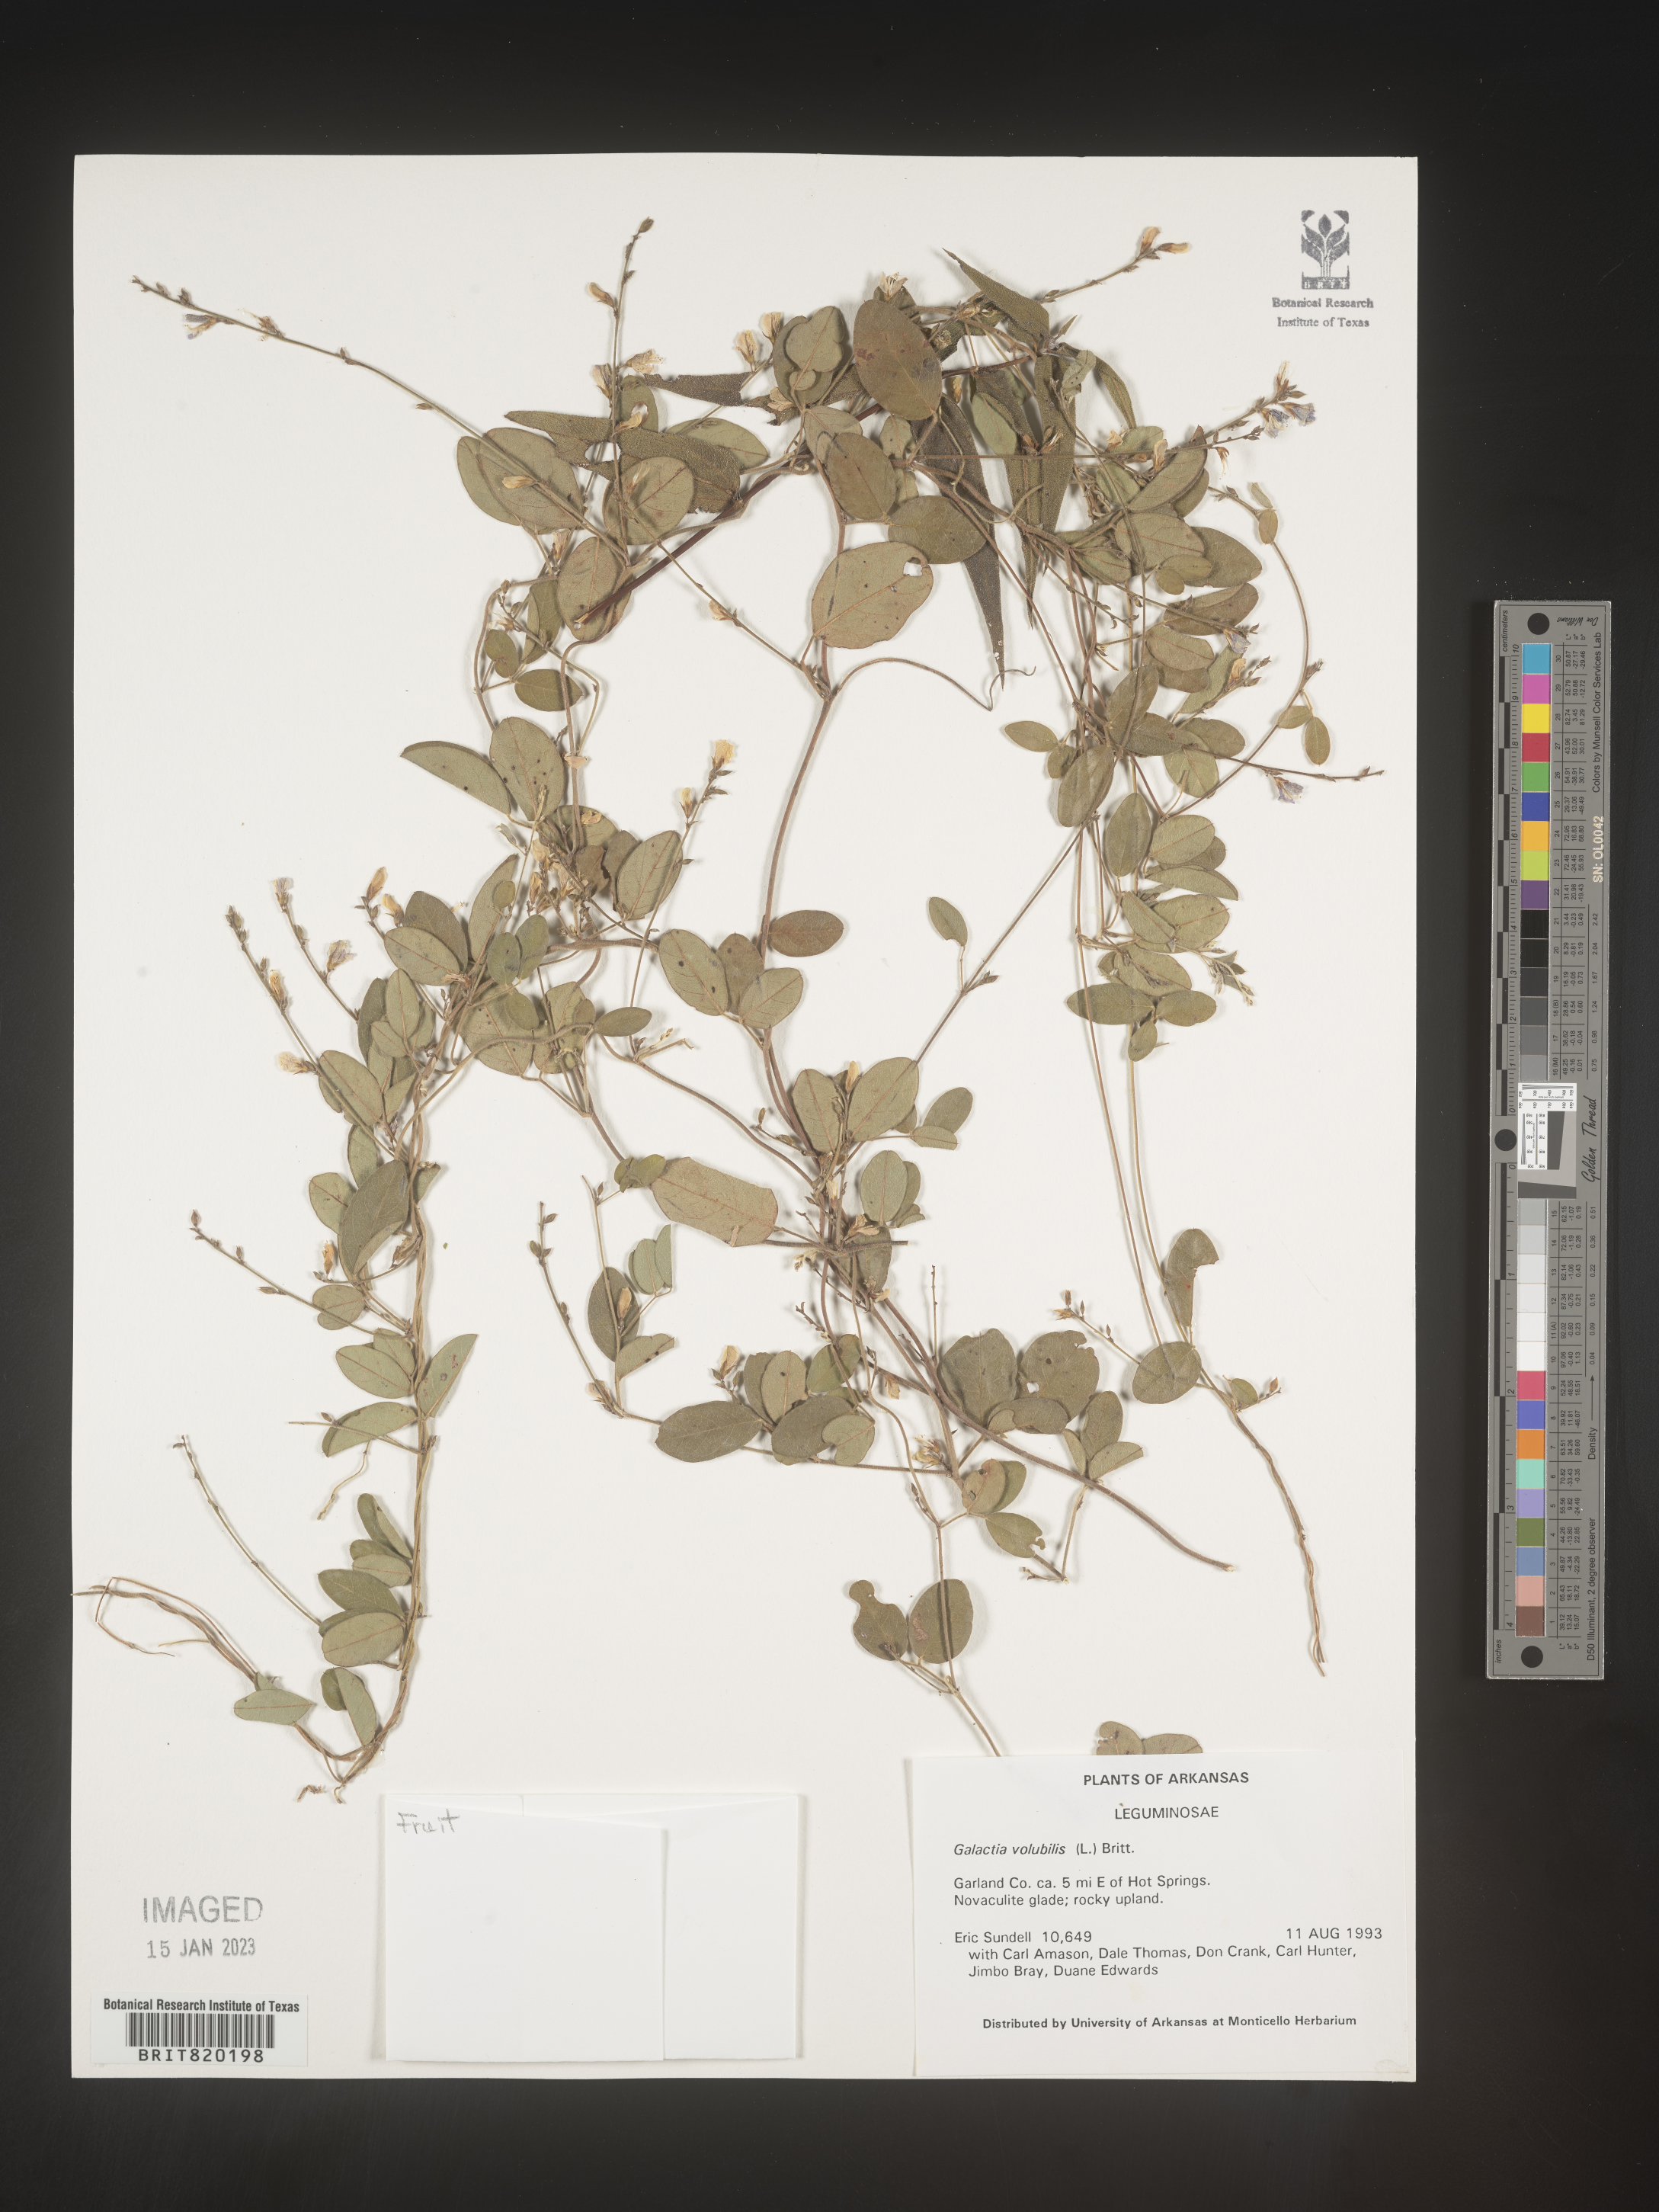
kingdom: Plantae
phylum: Tracheophyta
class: Magnoliopsida
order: Fabales
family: Fabaceae
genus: Galactia
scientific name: Galactia volubilis
